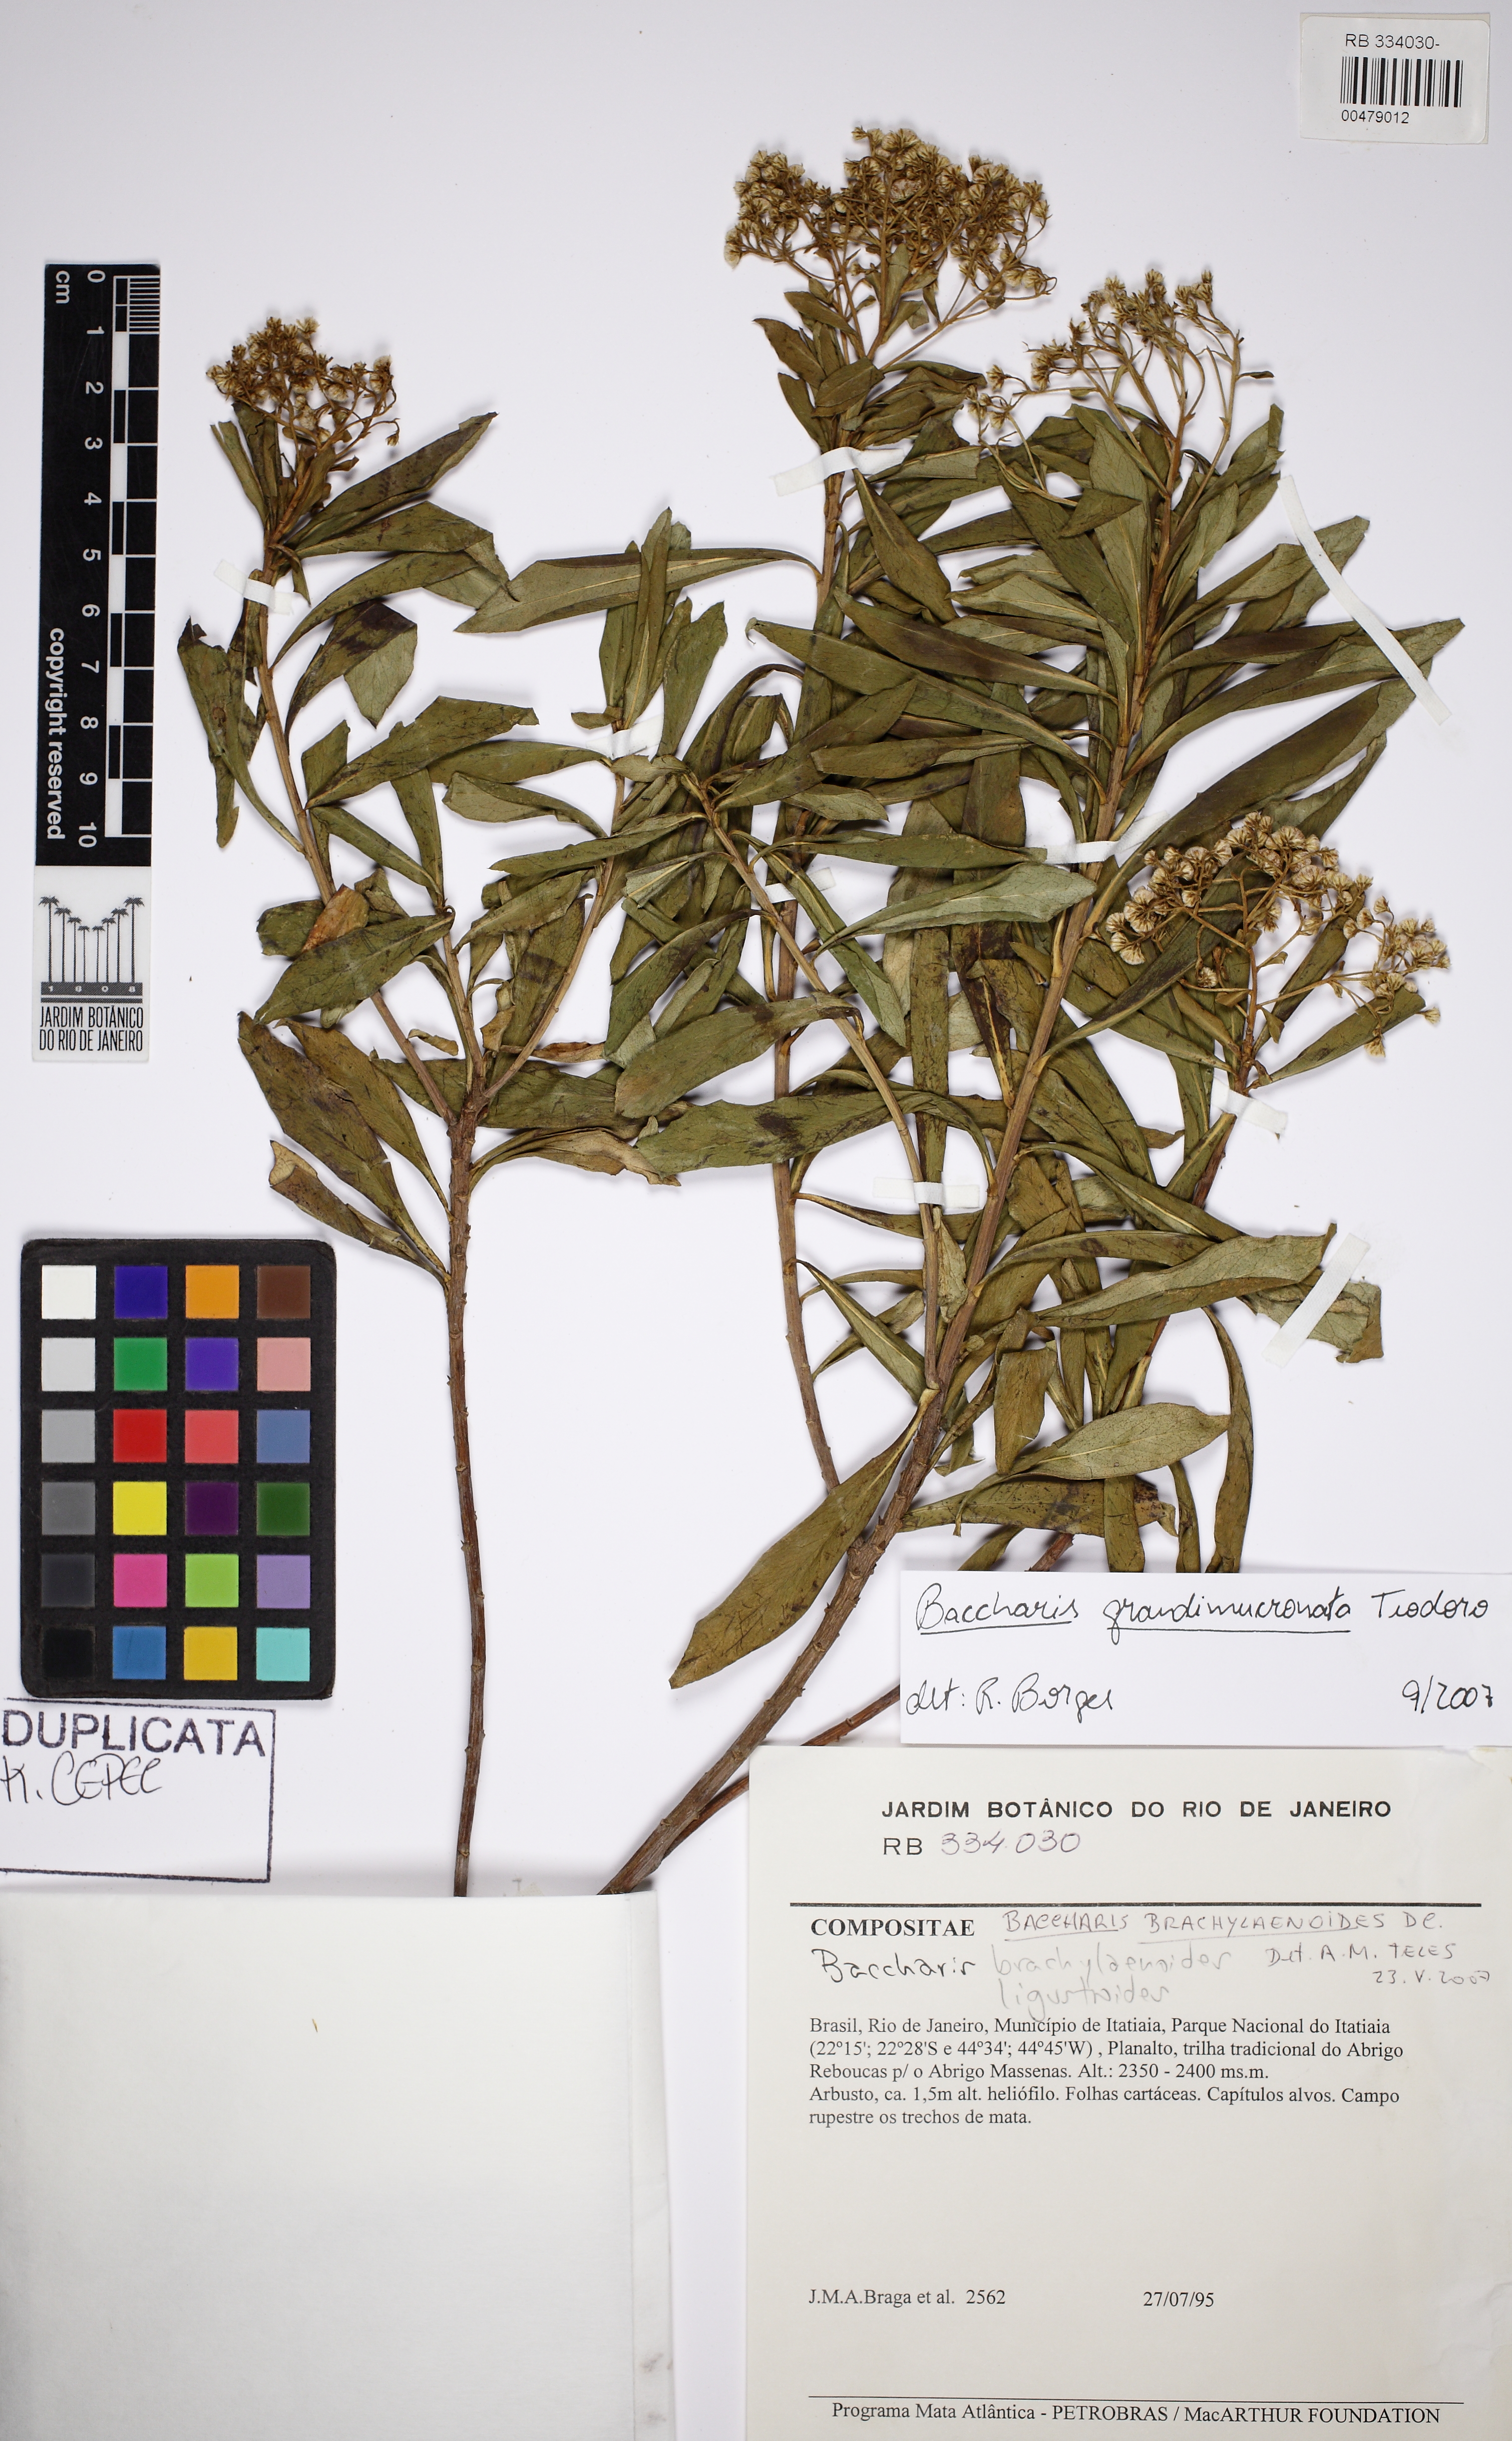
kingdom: Plantae
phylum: Tracheophyta
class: Magnoliopsida
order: Asterales
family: Asteraceae
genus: Baccharis
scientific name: Baccharis grandimucronata
